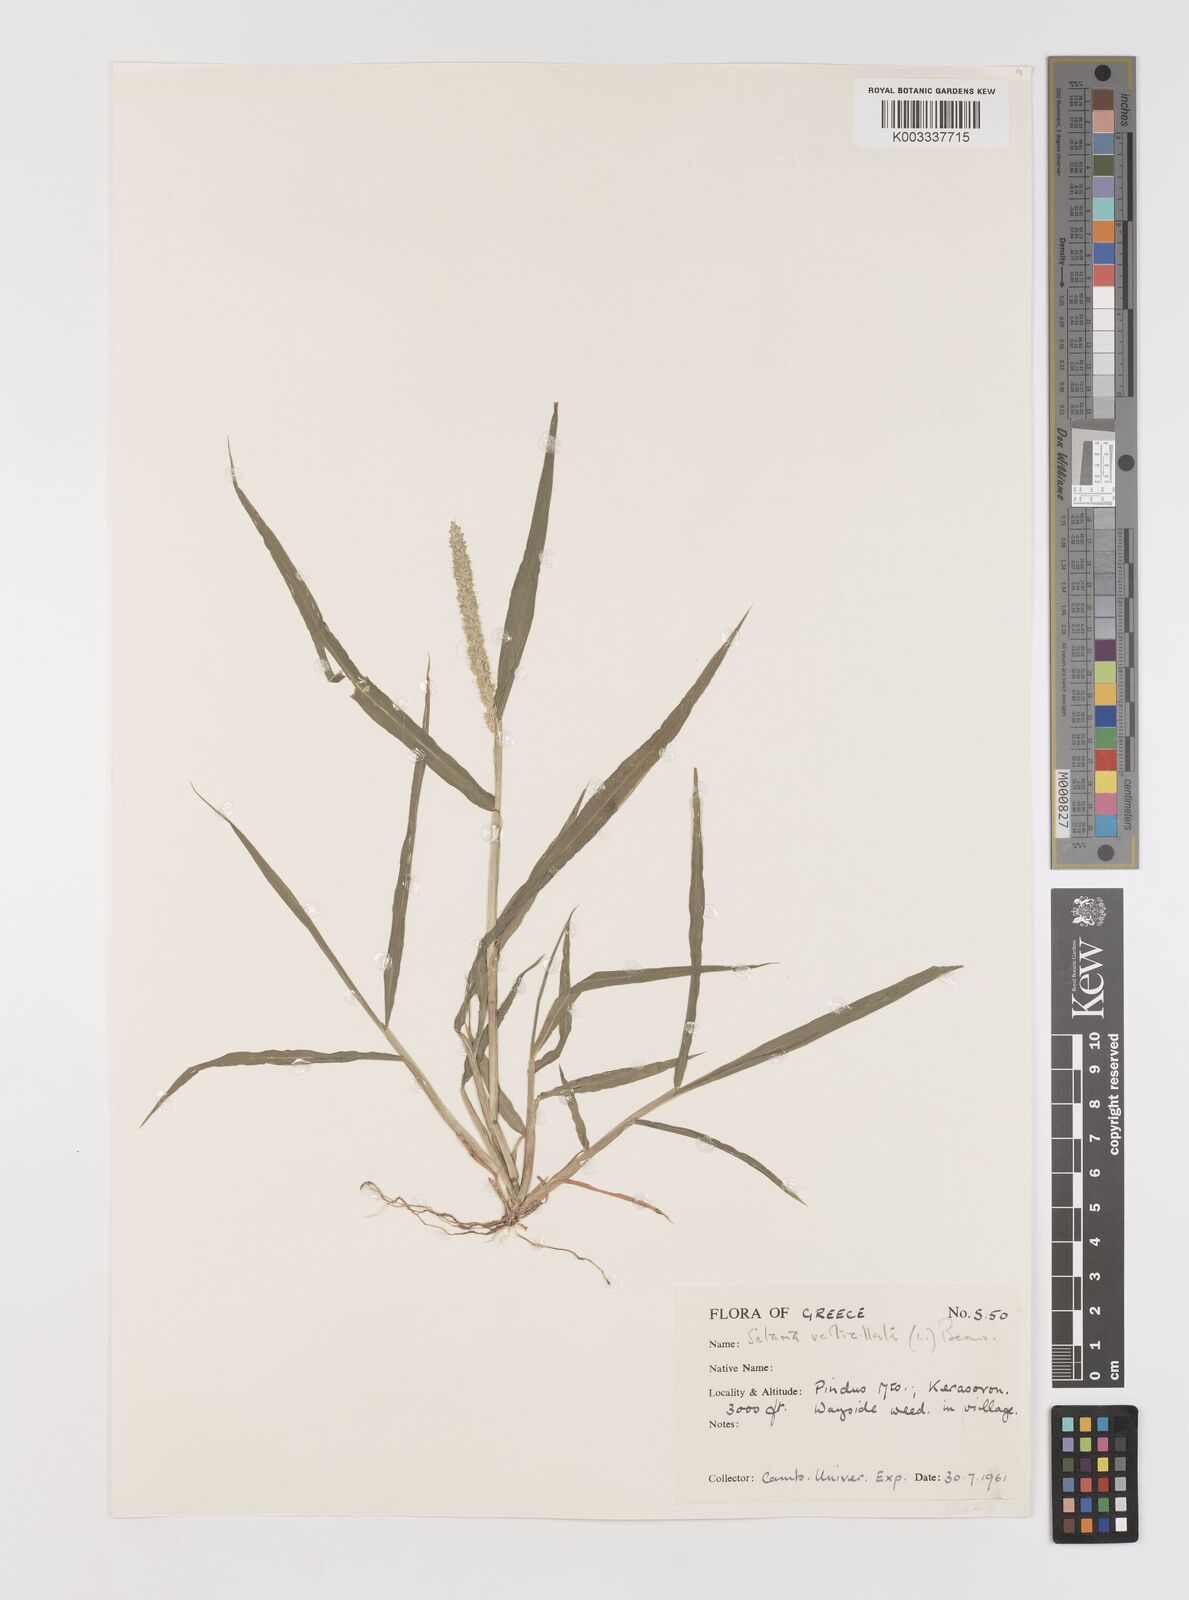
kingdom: Plantae
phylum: Tracheophyta
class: Liliopsida
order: Poales
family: Poaceae
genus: Setaria
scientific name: Setaria verticillata
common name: Hooked bristlegrass
